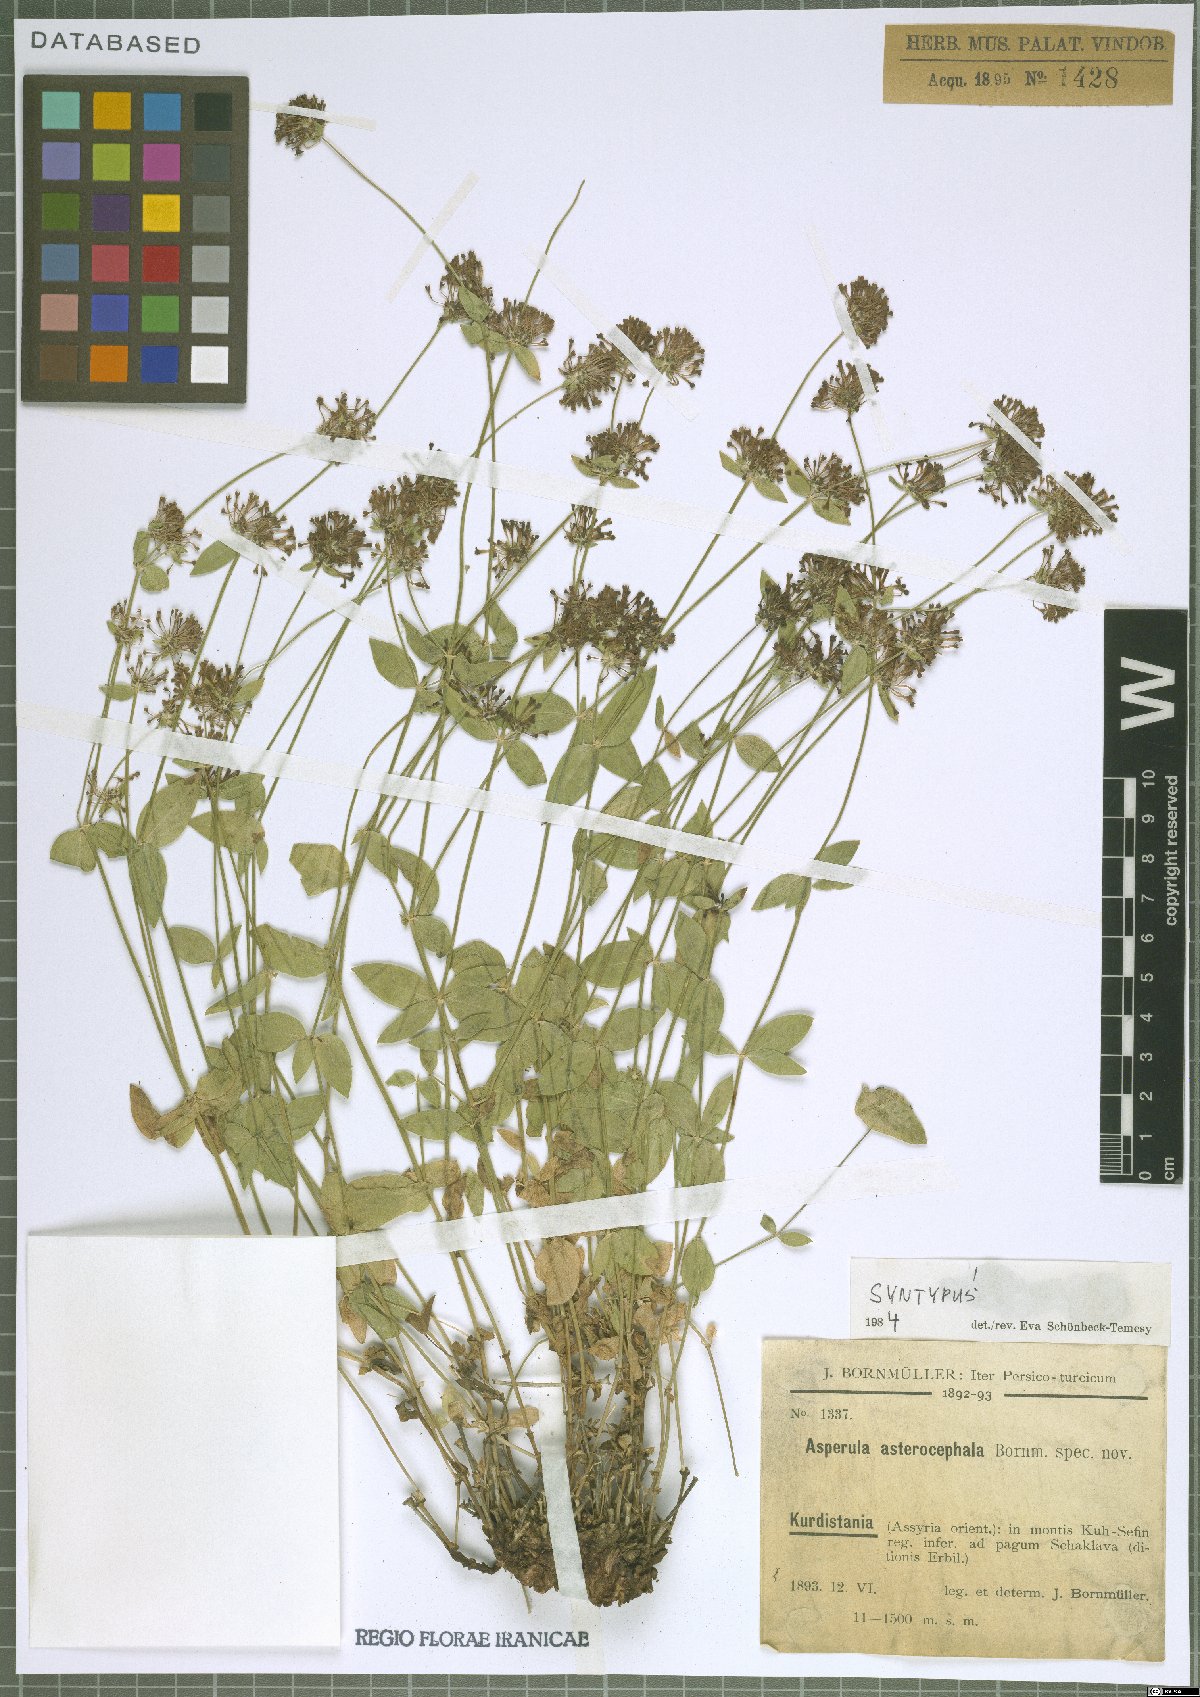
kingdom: Plantae
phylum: Tracheophyta
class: Magnoliopsida
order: Gentianales
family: Rubiaceae
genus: Asperula
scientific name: Asperula asterocephala
